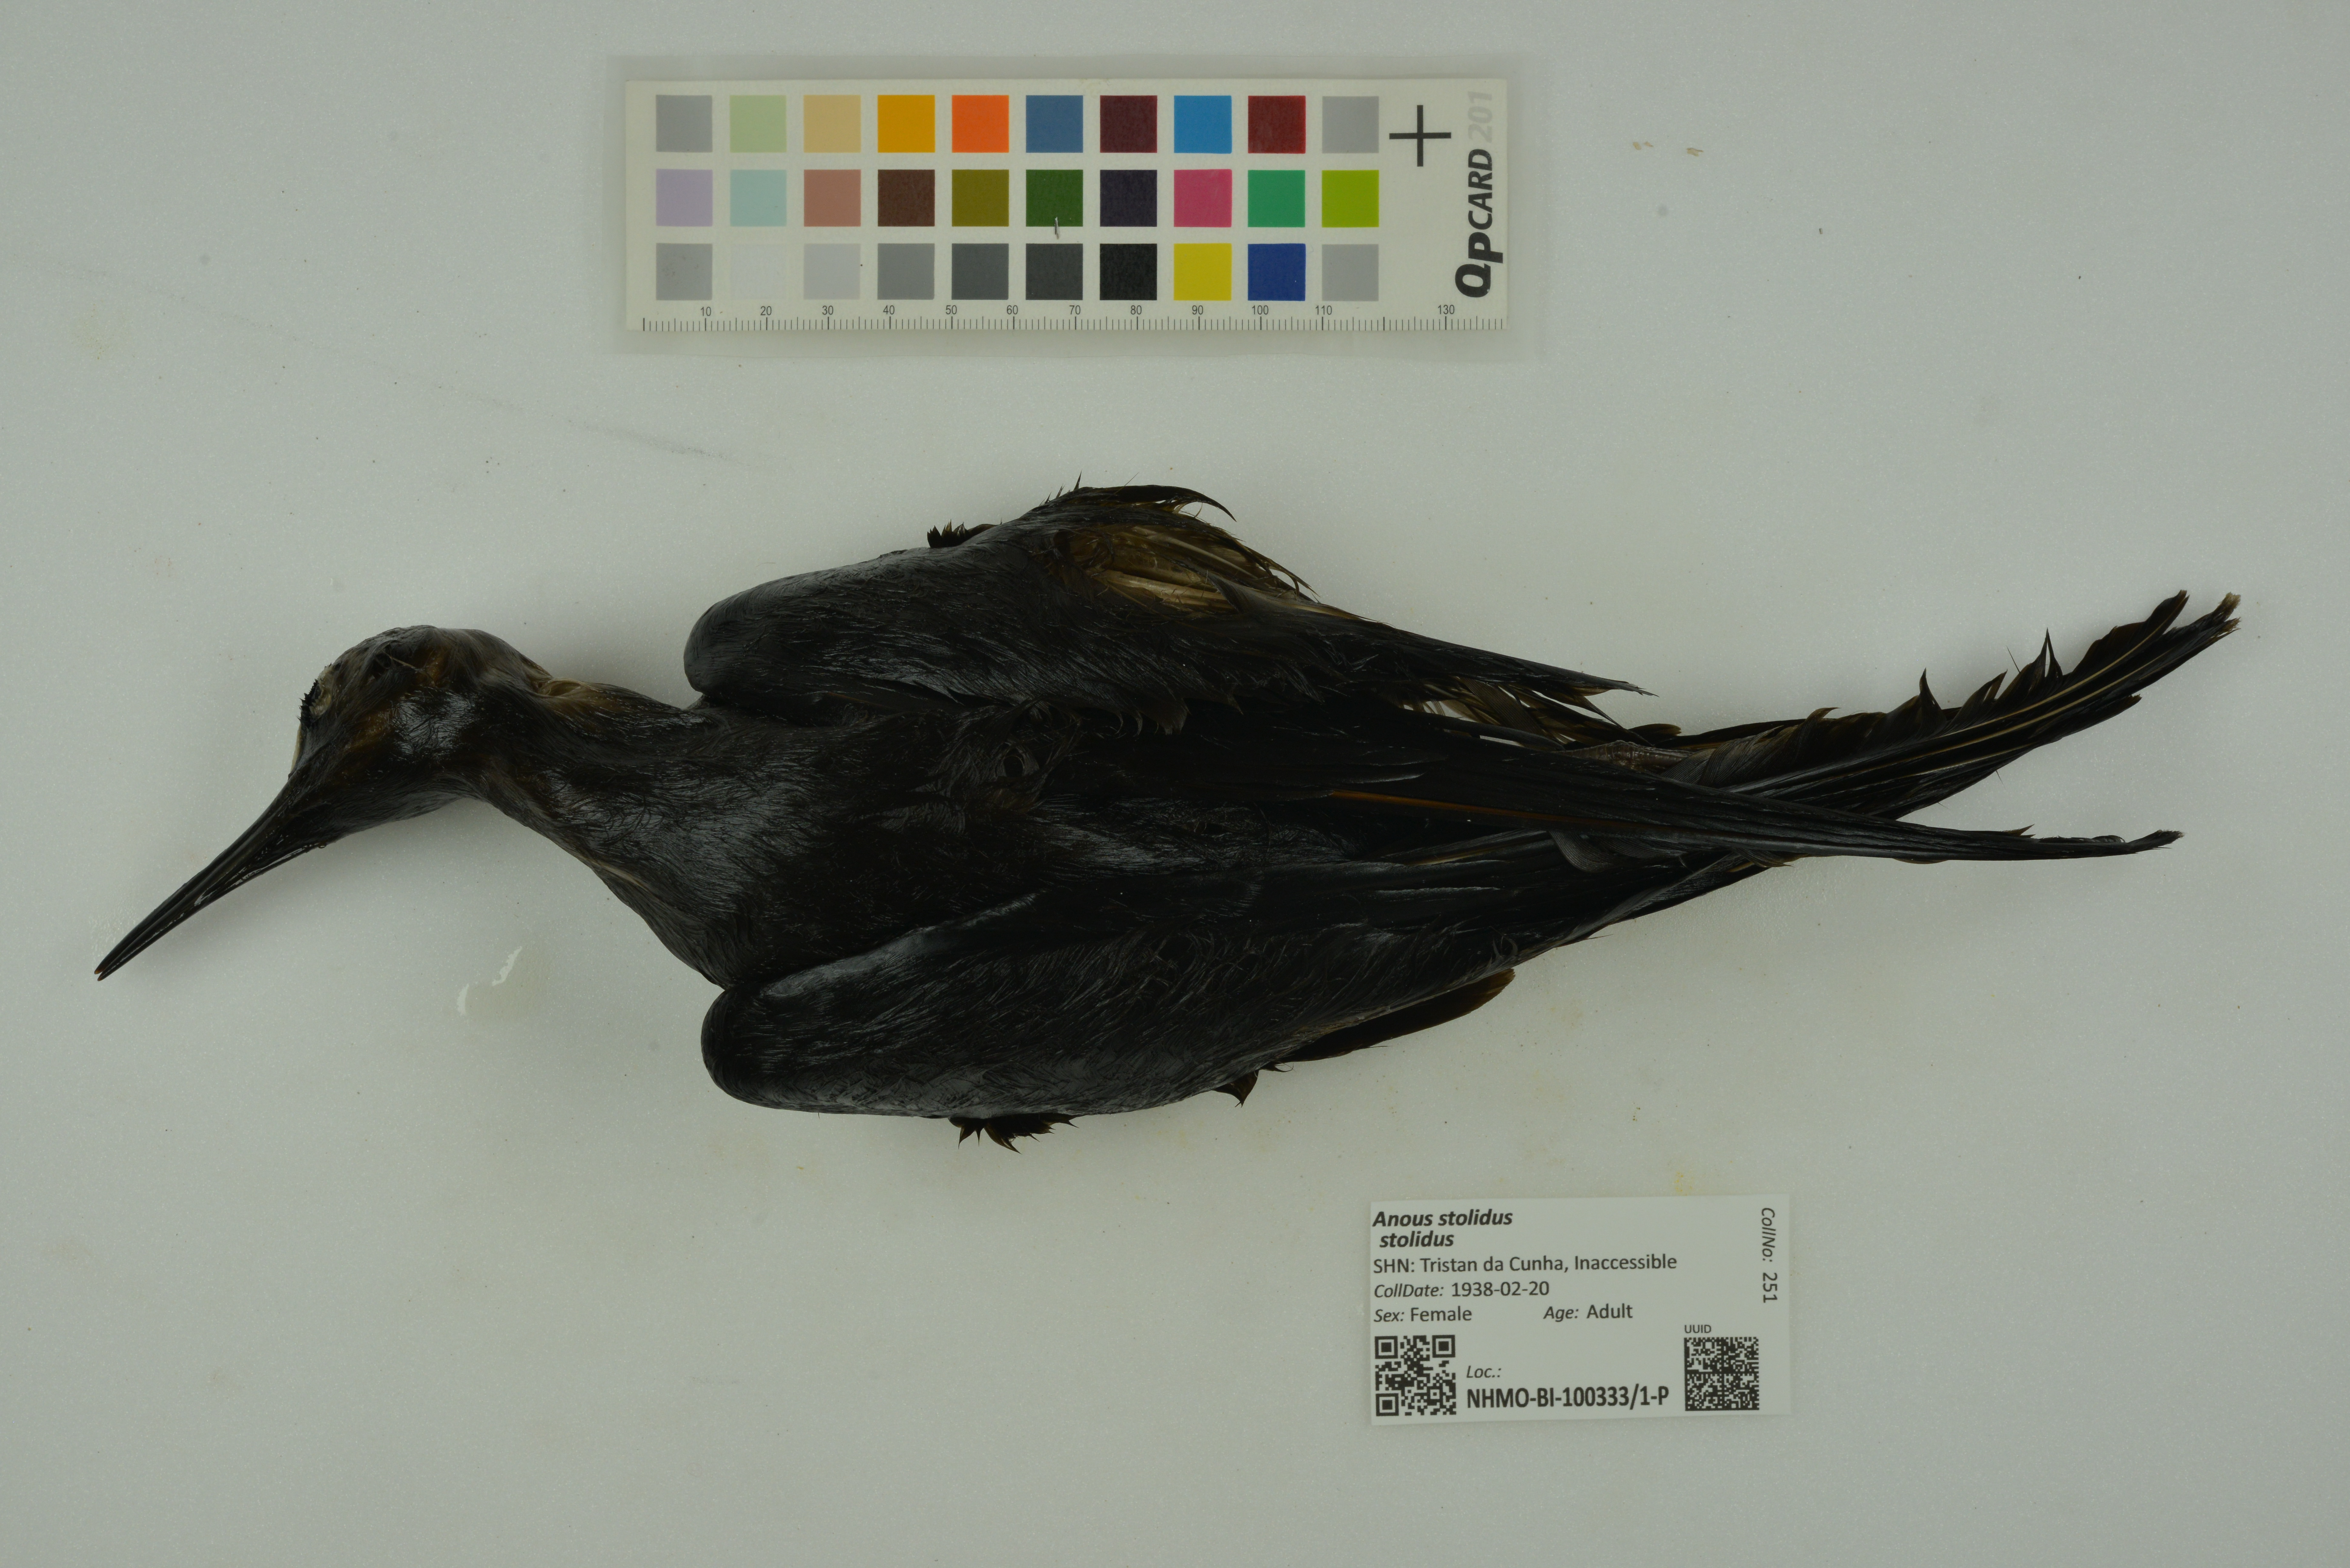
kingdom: Animalia
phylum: Chordata
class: Aves
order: Charadriiformes
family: Laridae
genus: Anous
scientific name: Anous stolidus
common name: Brown noddy
